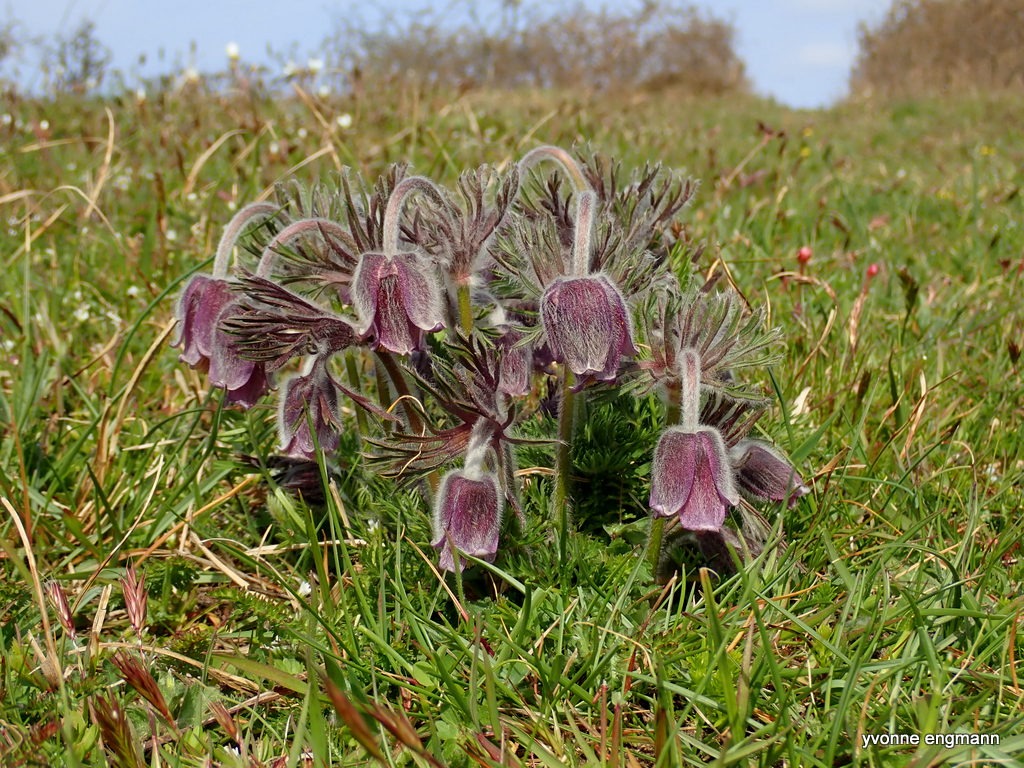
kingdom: Plantae
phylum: Tracheophyta
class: Magnoliopsida
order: Ranunculales
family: Ranunculaceae
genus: Pulsatilla
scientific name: Pulsatilla pratensis
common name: Nikkende kobjælde
